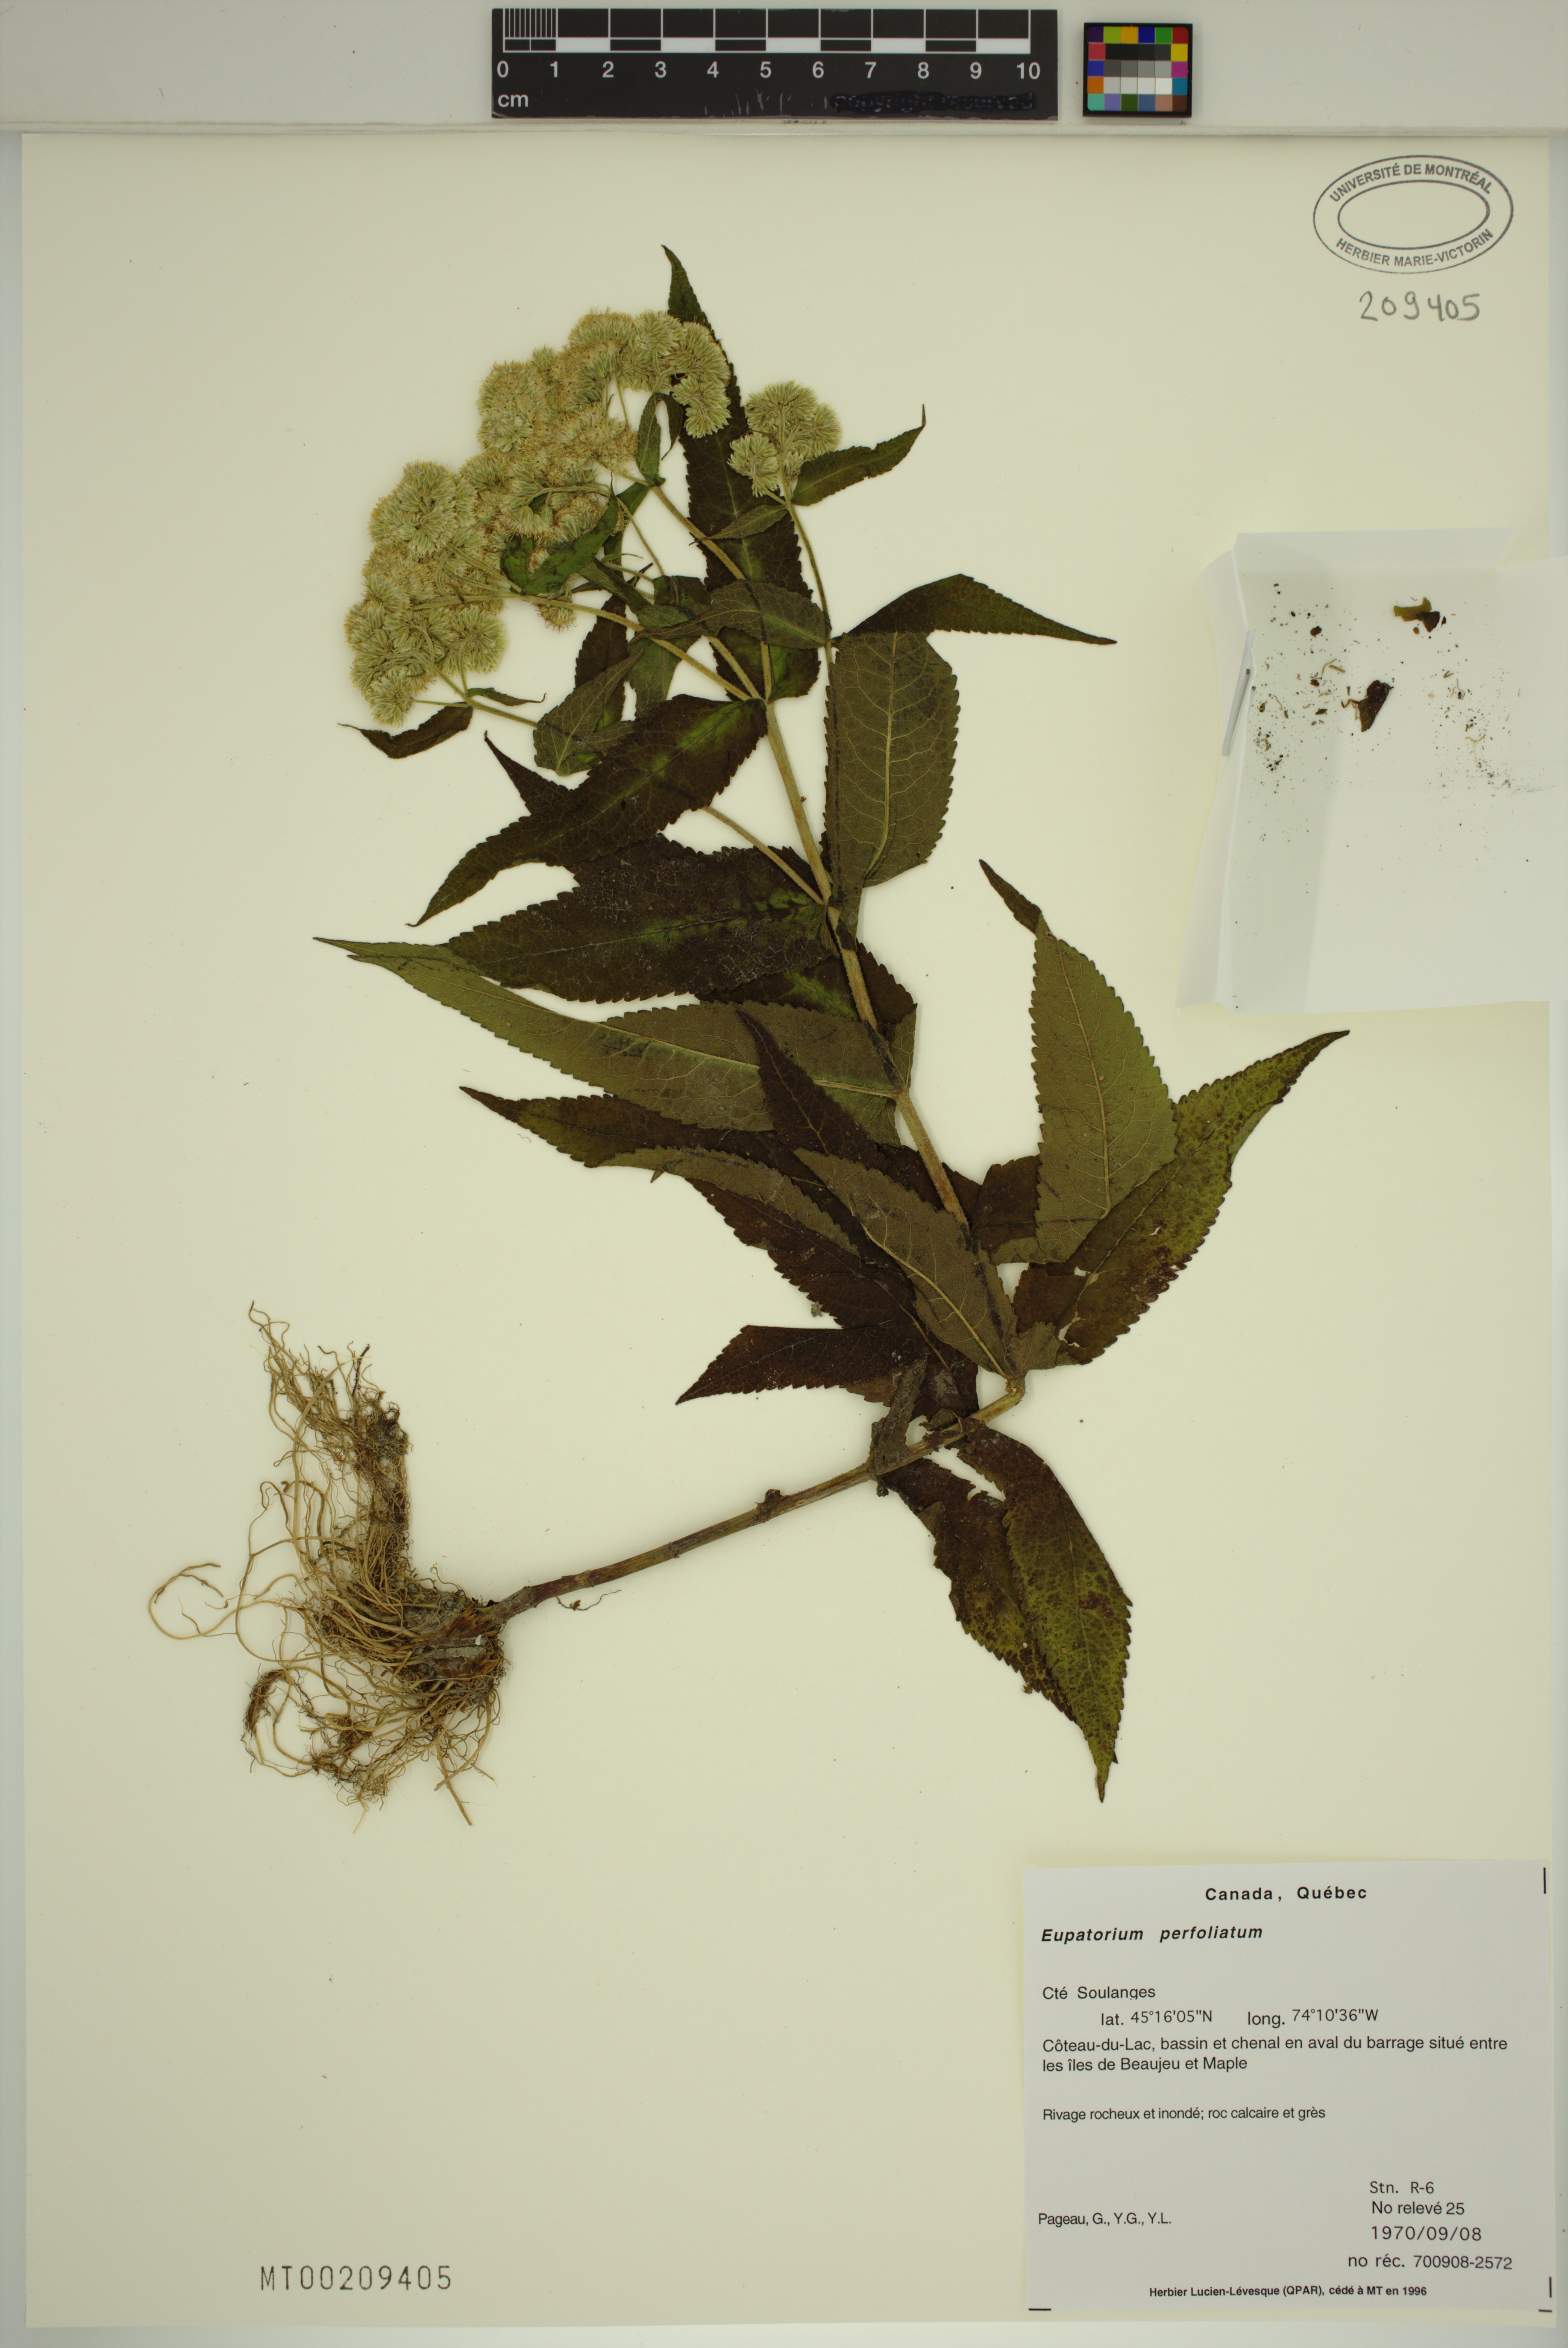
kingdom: Plantae
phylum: Tracheophyta
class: Magnoliopsida
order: Asterales
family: Asteraceae
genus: Eupatorium
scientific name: Eupatorium perfoliatum
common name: Boneset
